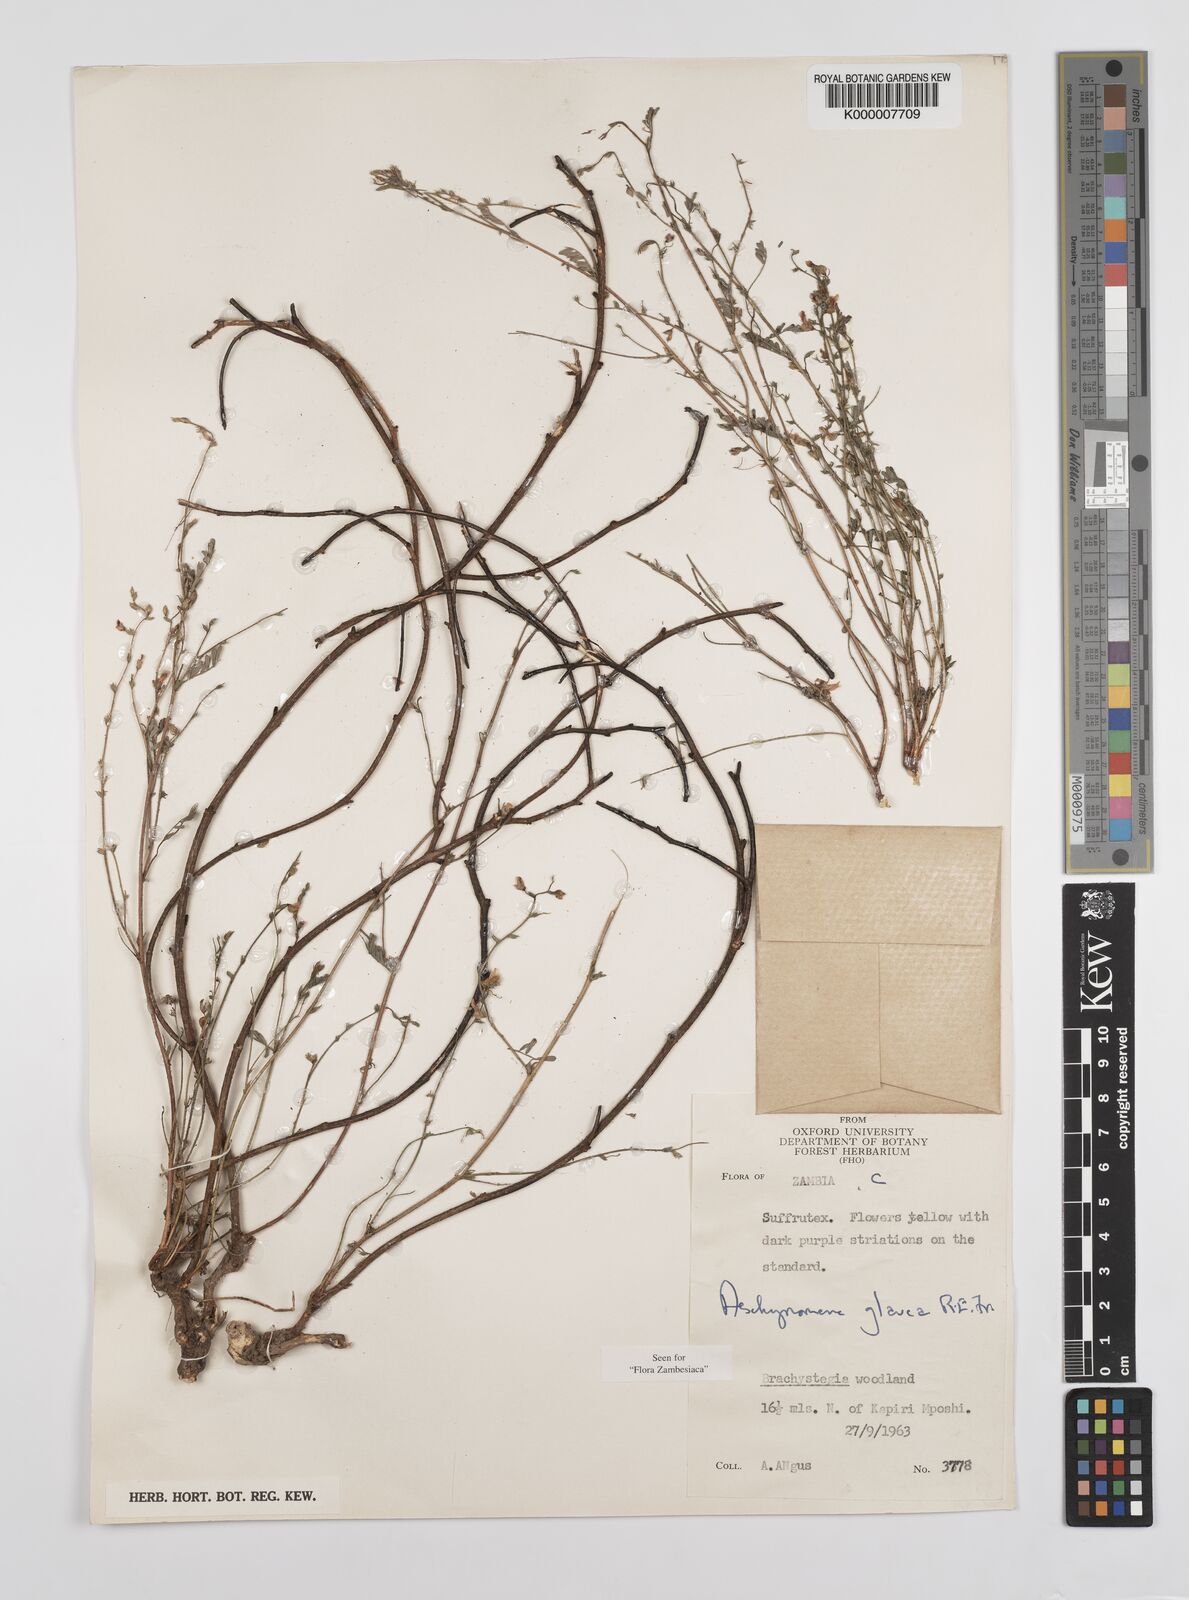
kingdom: Plantae
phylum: Tracheophyta
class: Magnoliopsida
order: Fabales
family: Fabaceae
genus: Aeschynomene
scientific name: Aeschynomene glauca
